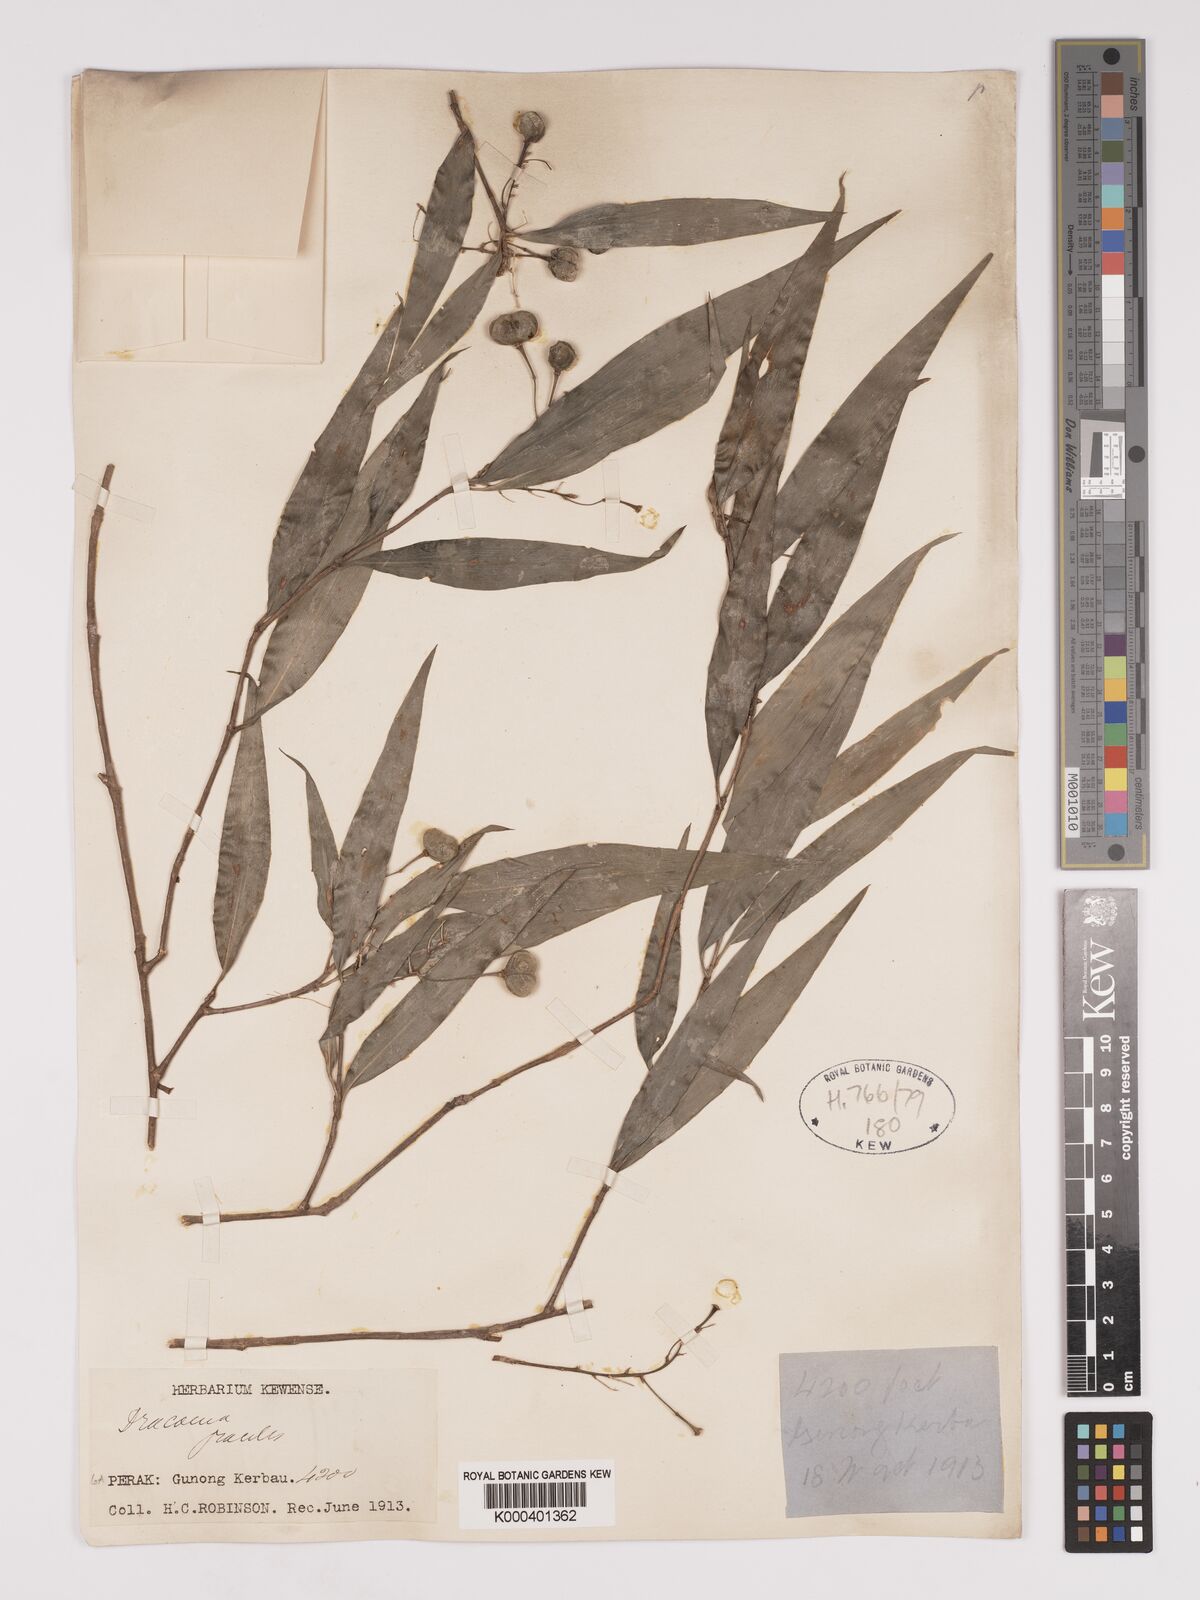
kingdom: Plantae
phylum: Tracheophyta
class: Liliopsida
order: Asparagales
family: Asparagaceae
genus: Dracaena
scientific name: Dracaena elliptica
